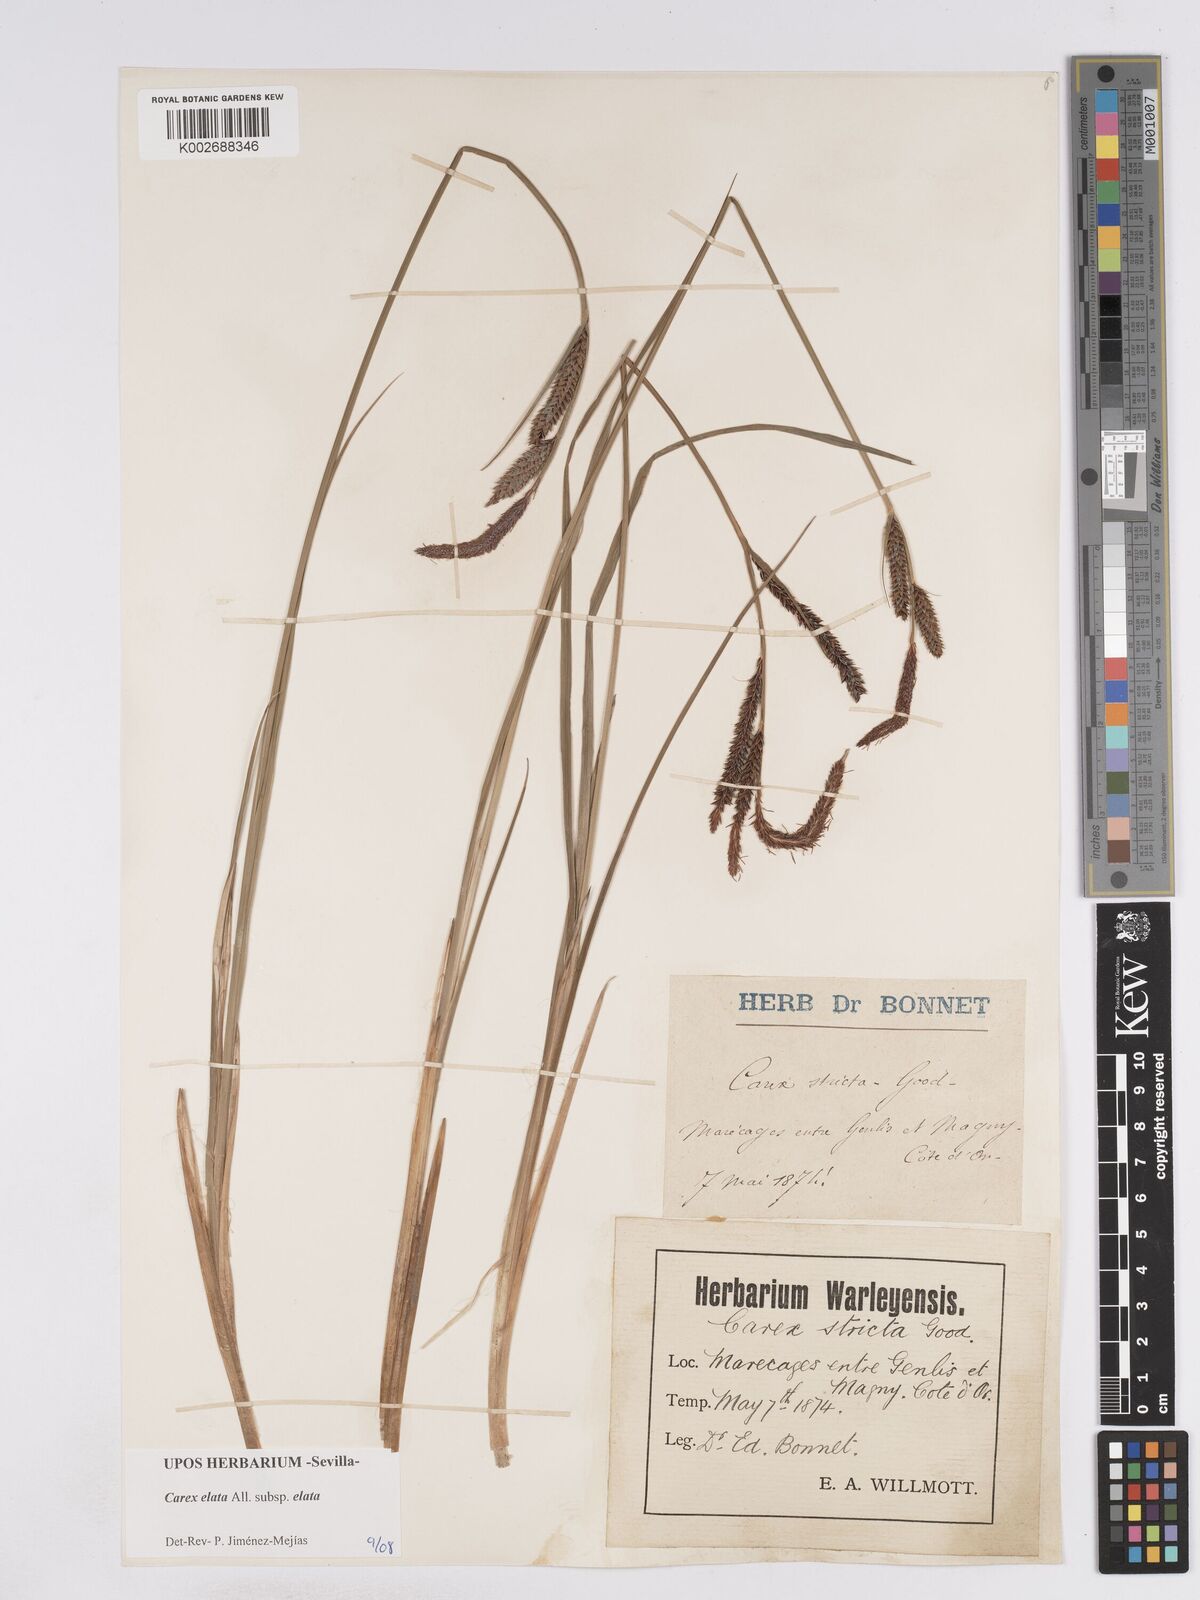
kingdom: Plantae
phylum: Tracheophyta
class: Liliopsida
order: Poales
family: Cyperaceae
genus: Carex
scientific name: Carex elata
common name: Tufted sedge
